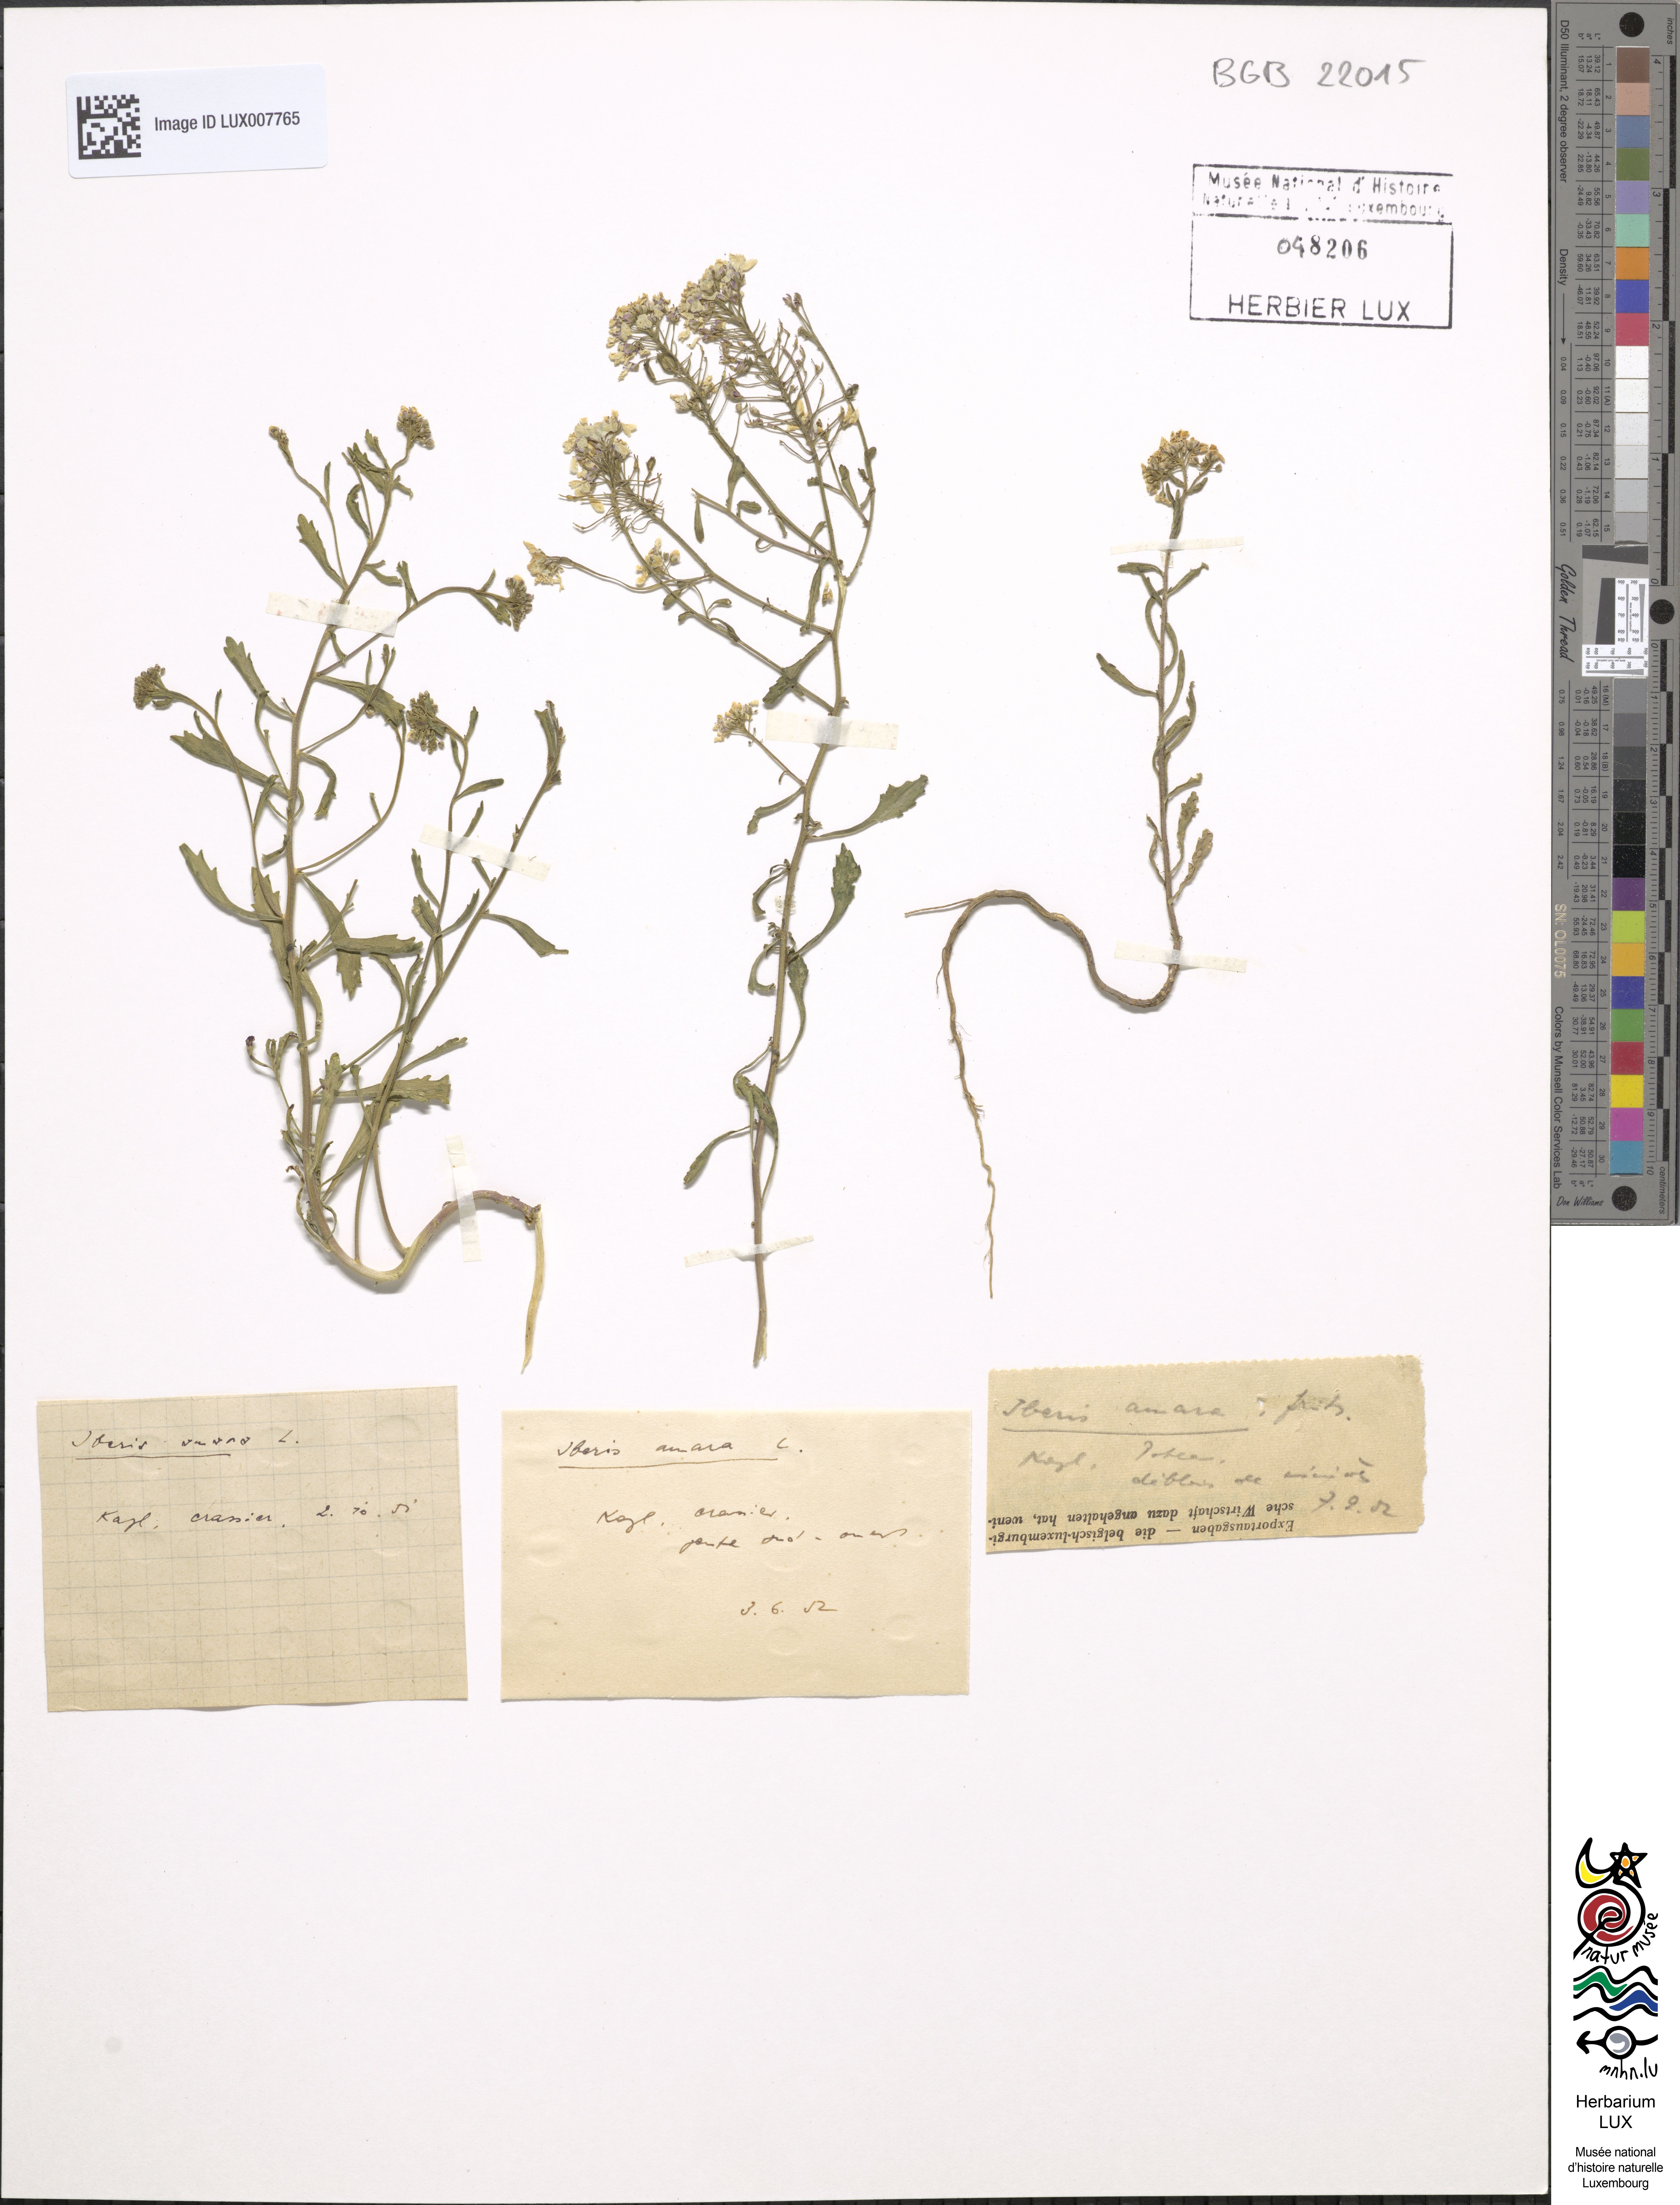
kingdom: Plantae
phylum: Tracheophyta
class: Magnoliopsida
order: Brassicales
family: Brassicaceae
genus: Iberis
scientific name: Iberis amara
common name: Annual candytuft
